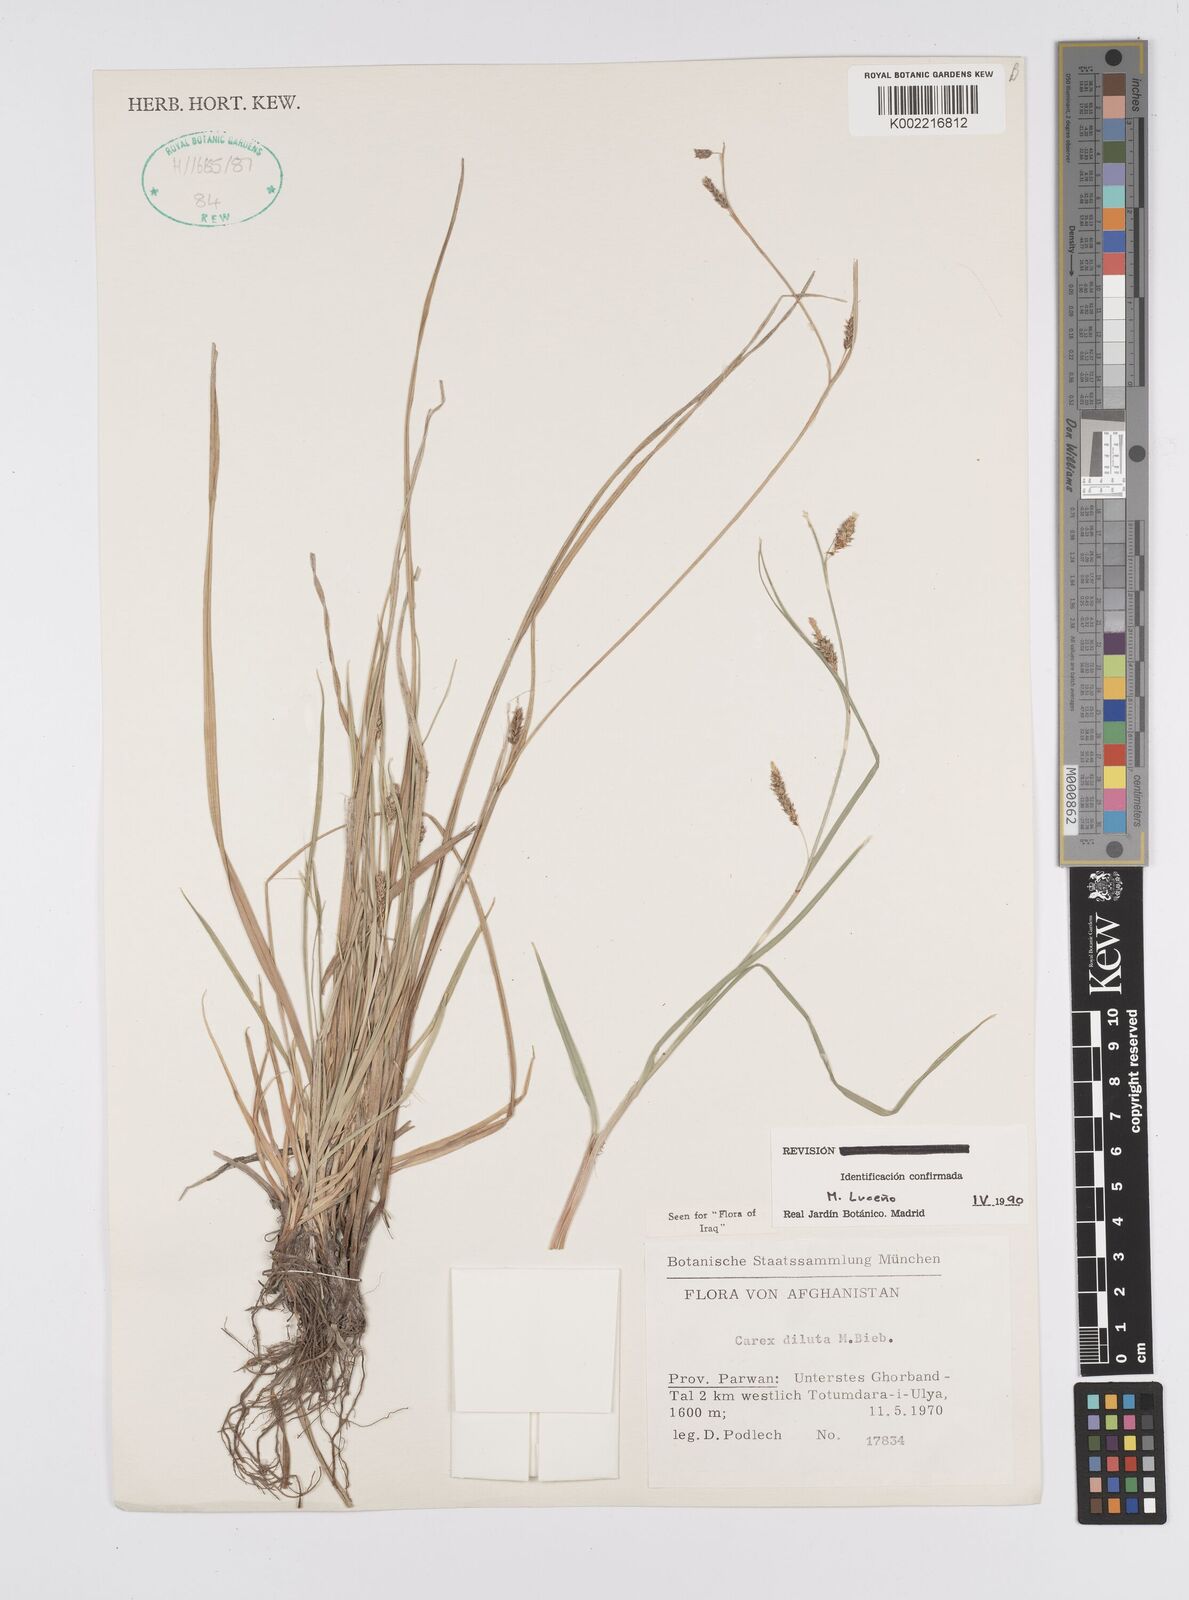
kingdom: Plantae
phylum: Tracheophyta
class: Liliopsida
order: Poales
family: Cyperaceae
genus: Carex
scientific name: Carex diluta
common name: Sedge
